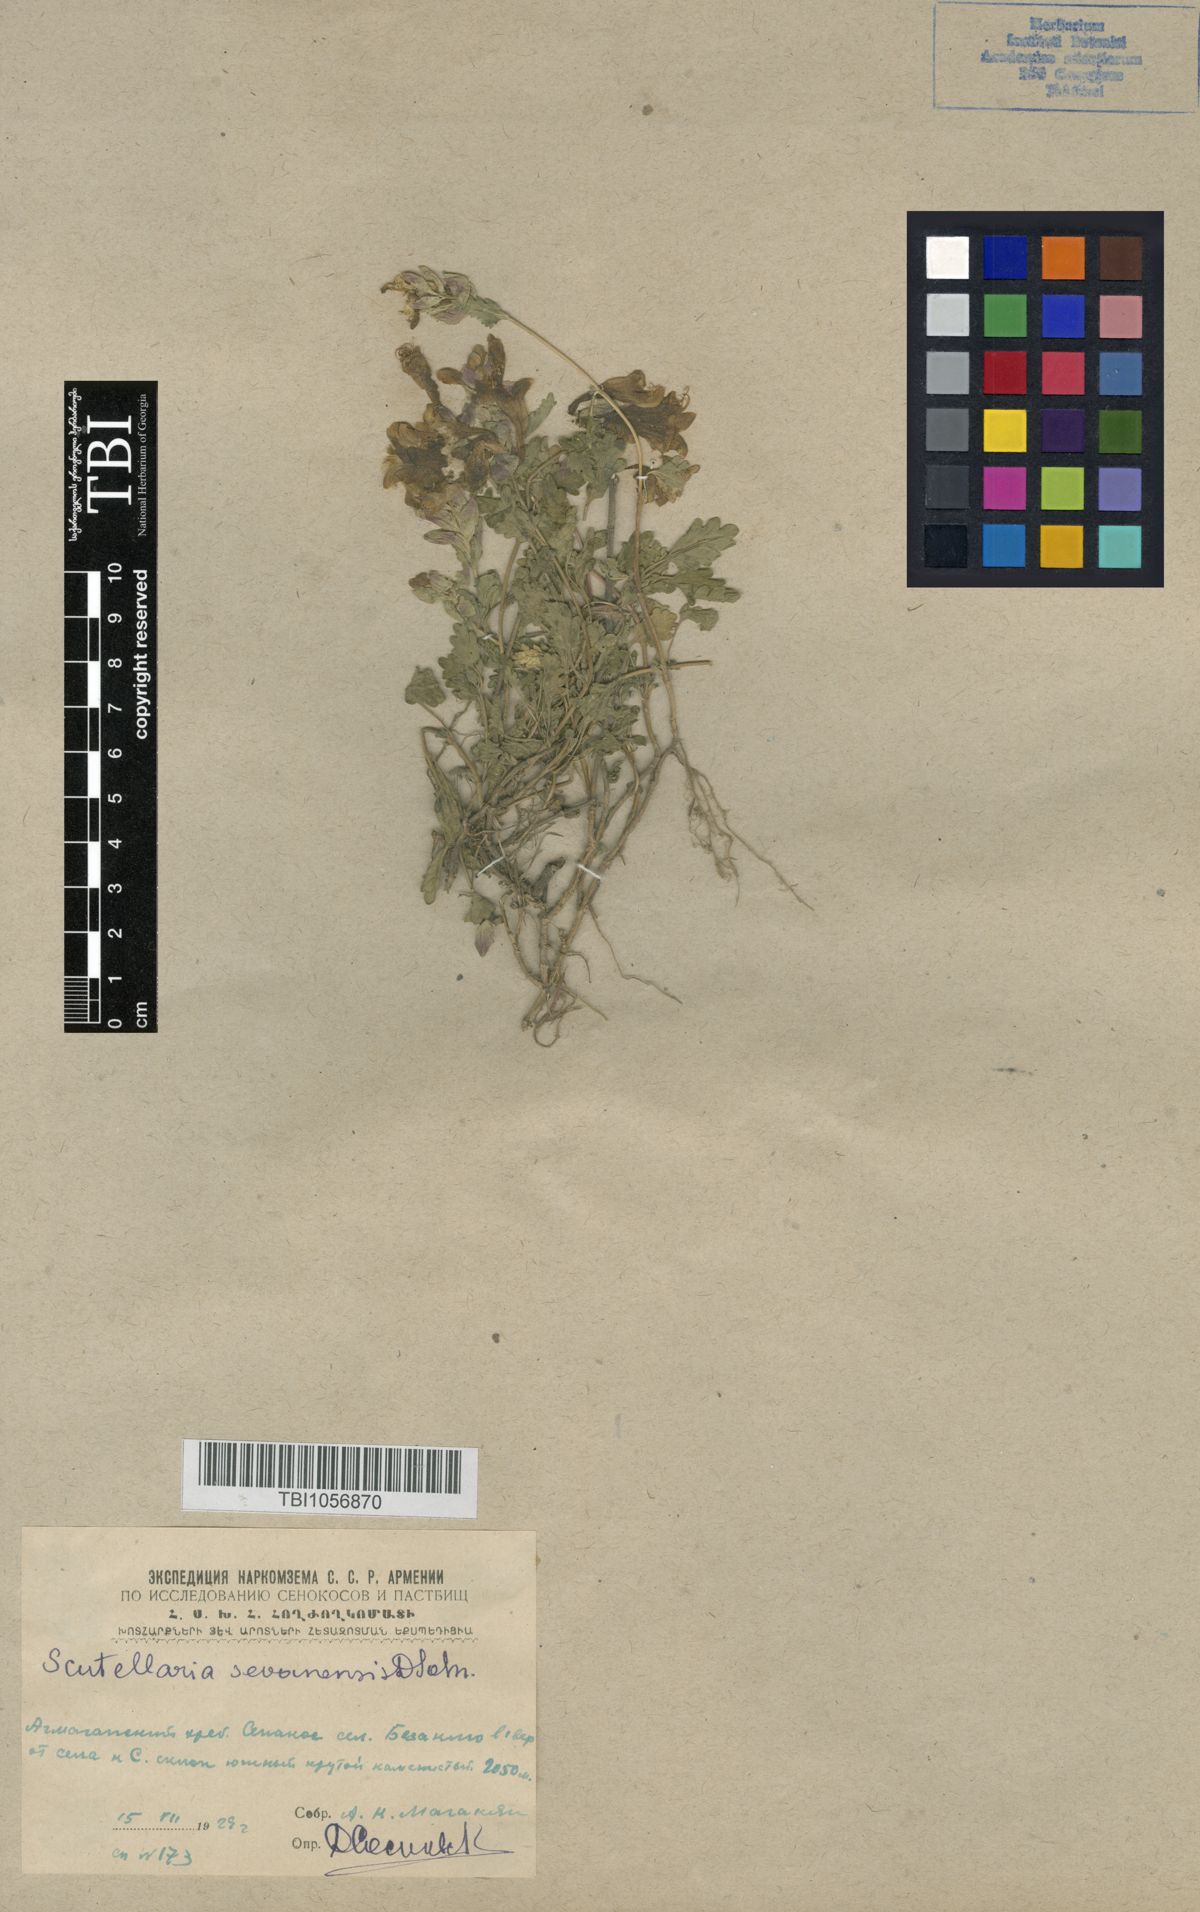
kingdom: Plantae
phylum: Tracheophyta
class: Magnoliopsida
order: Lamiales
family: Lamiaceae
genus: Scutellaria
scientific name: Scutellaria sevanensis
